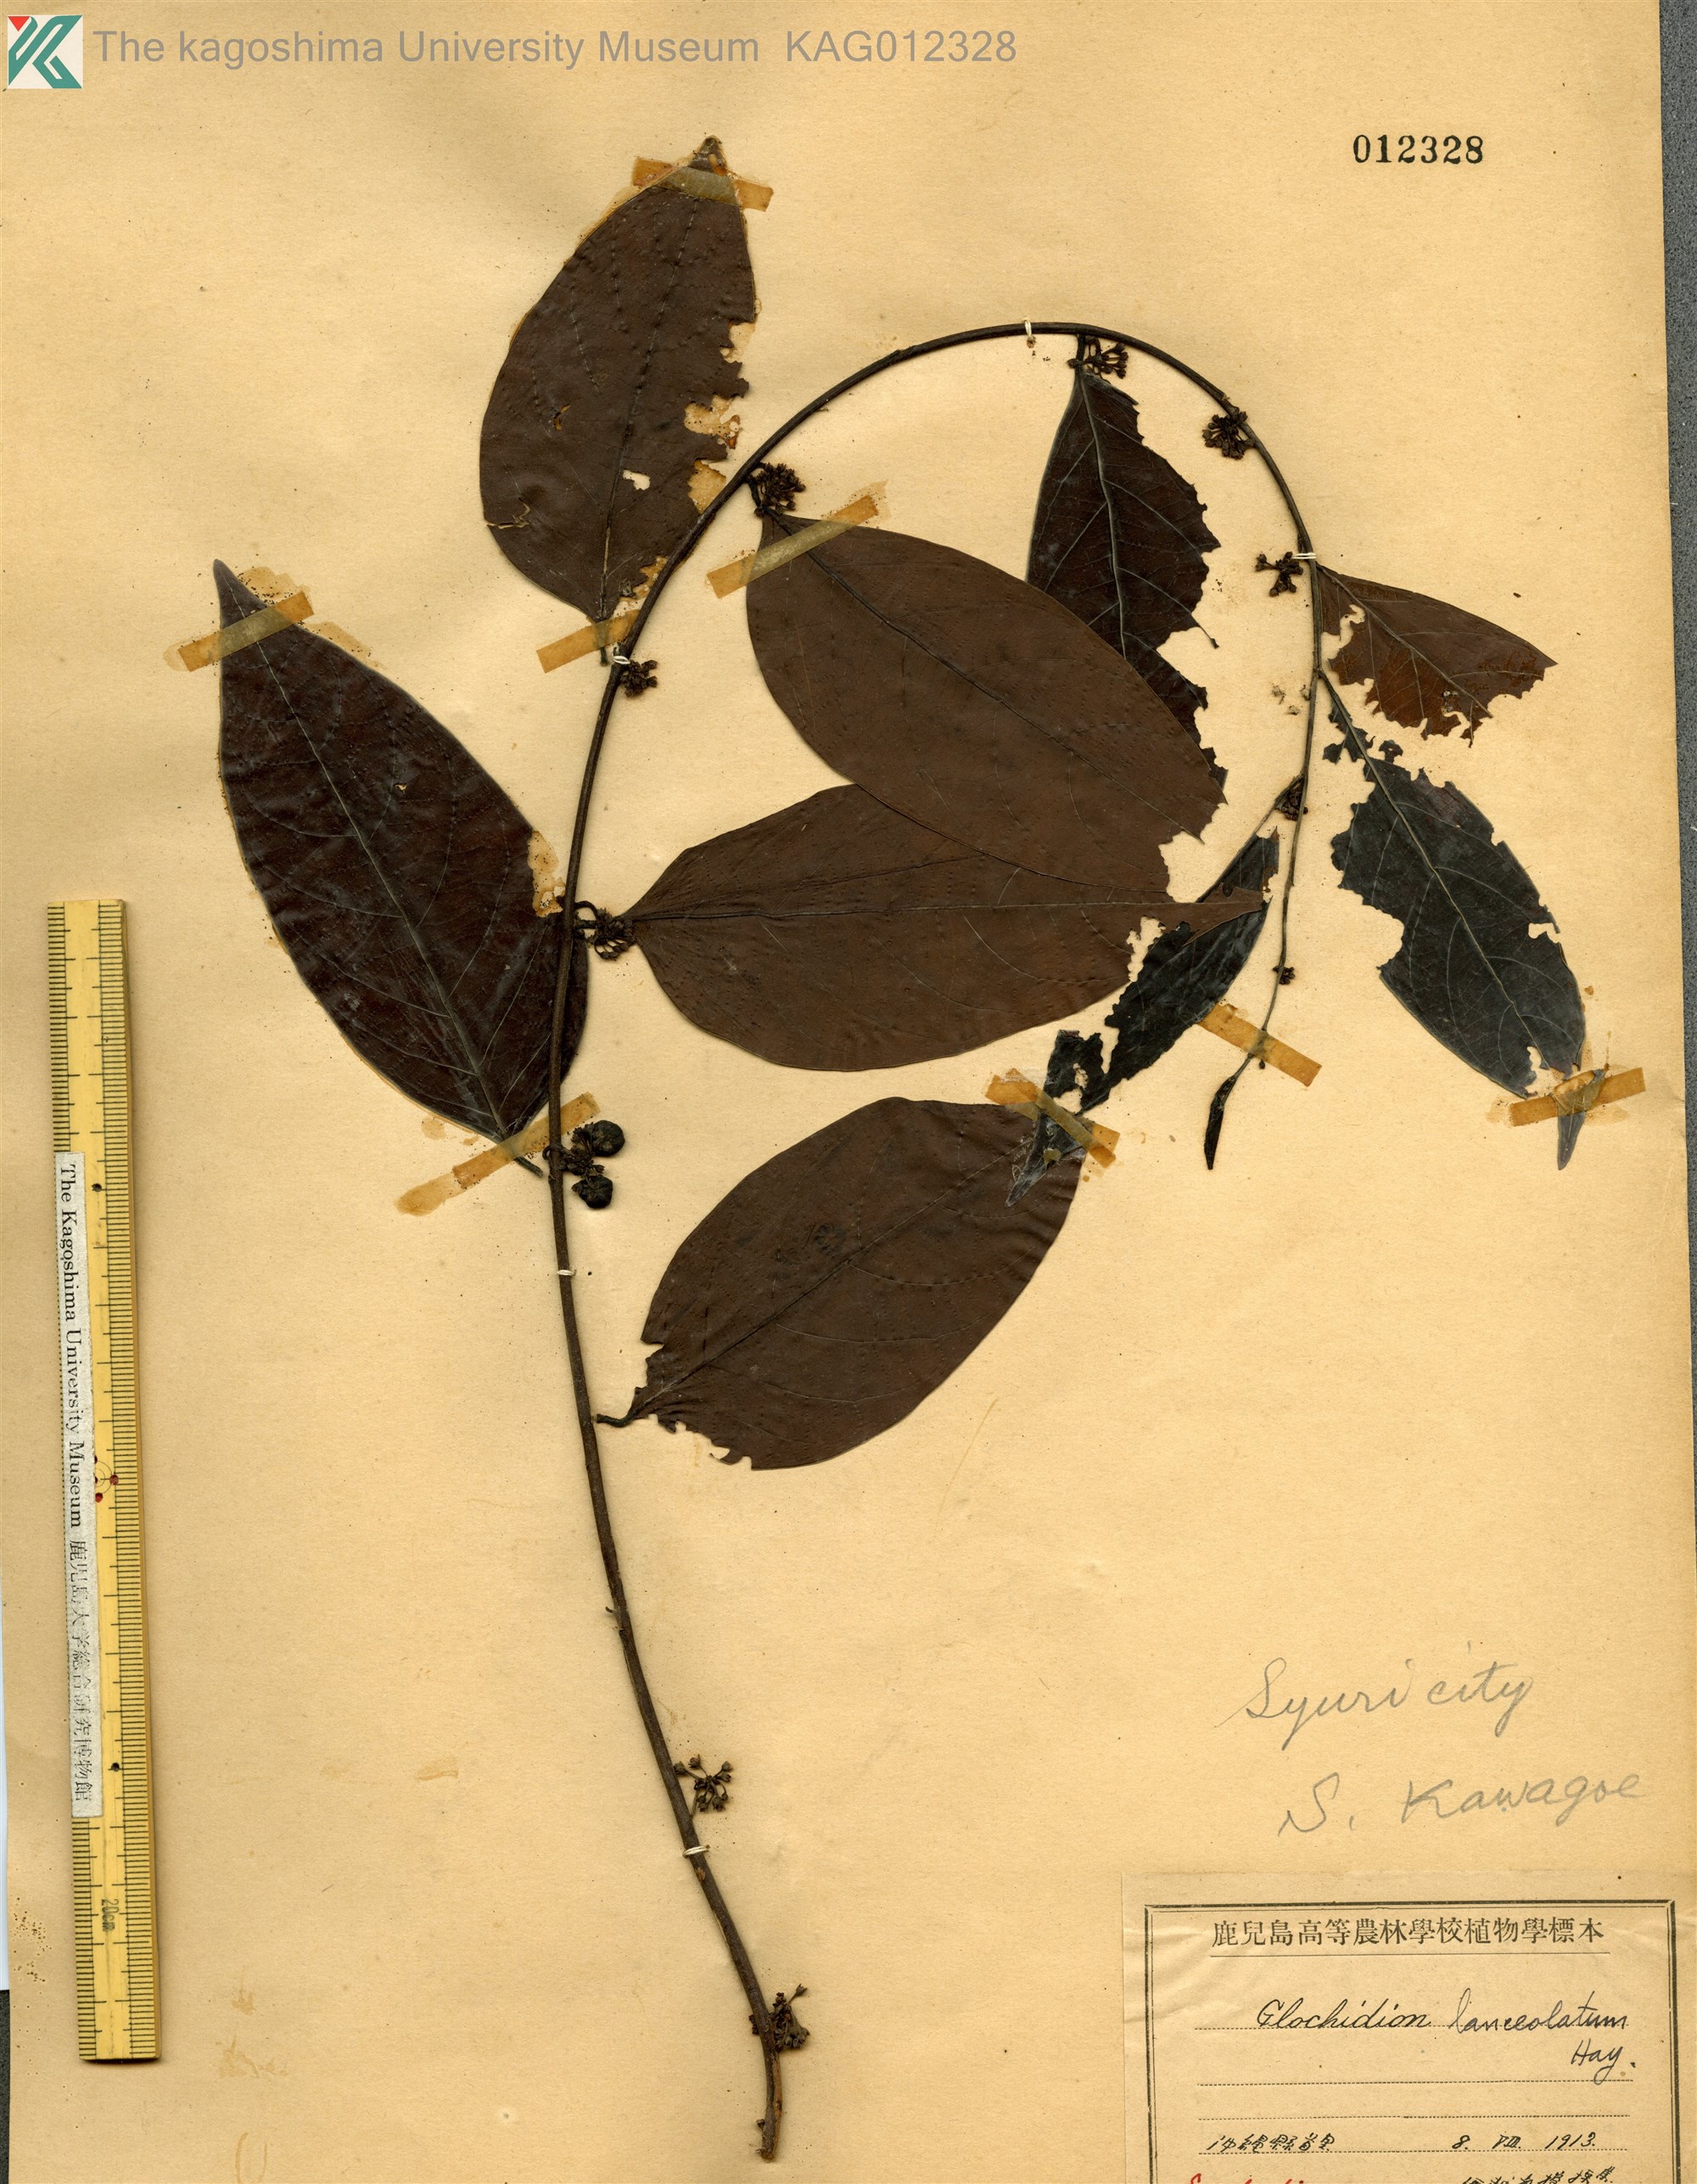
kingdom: Plantae
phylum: Tracheophyta
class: Magnoliopsida
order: Malpighiales
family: Phyllanthaceae
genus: Glochidion
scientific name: Glochidion lanceolatum
